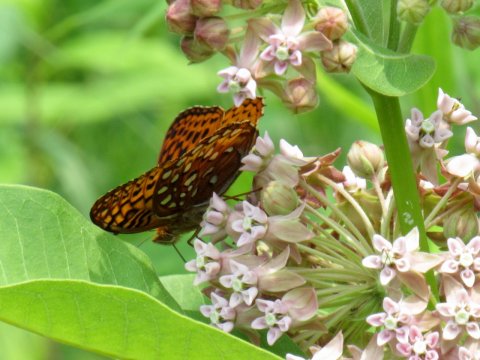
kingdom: Animalia
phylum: Arthropoda
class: Insecta
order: Lepidoptera
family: Nymphalidae
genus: Speyeria
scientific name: Speyeria aphrodite
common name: Aphrodite Fritillary
